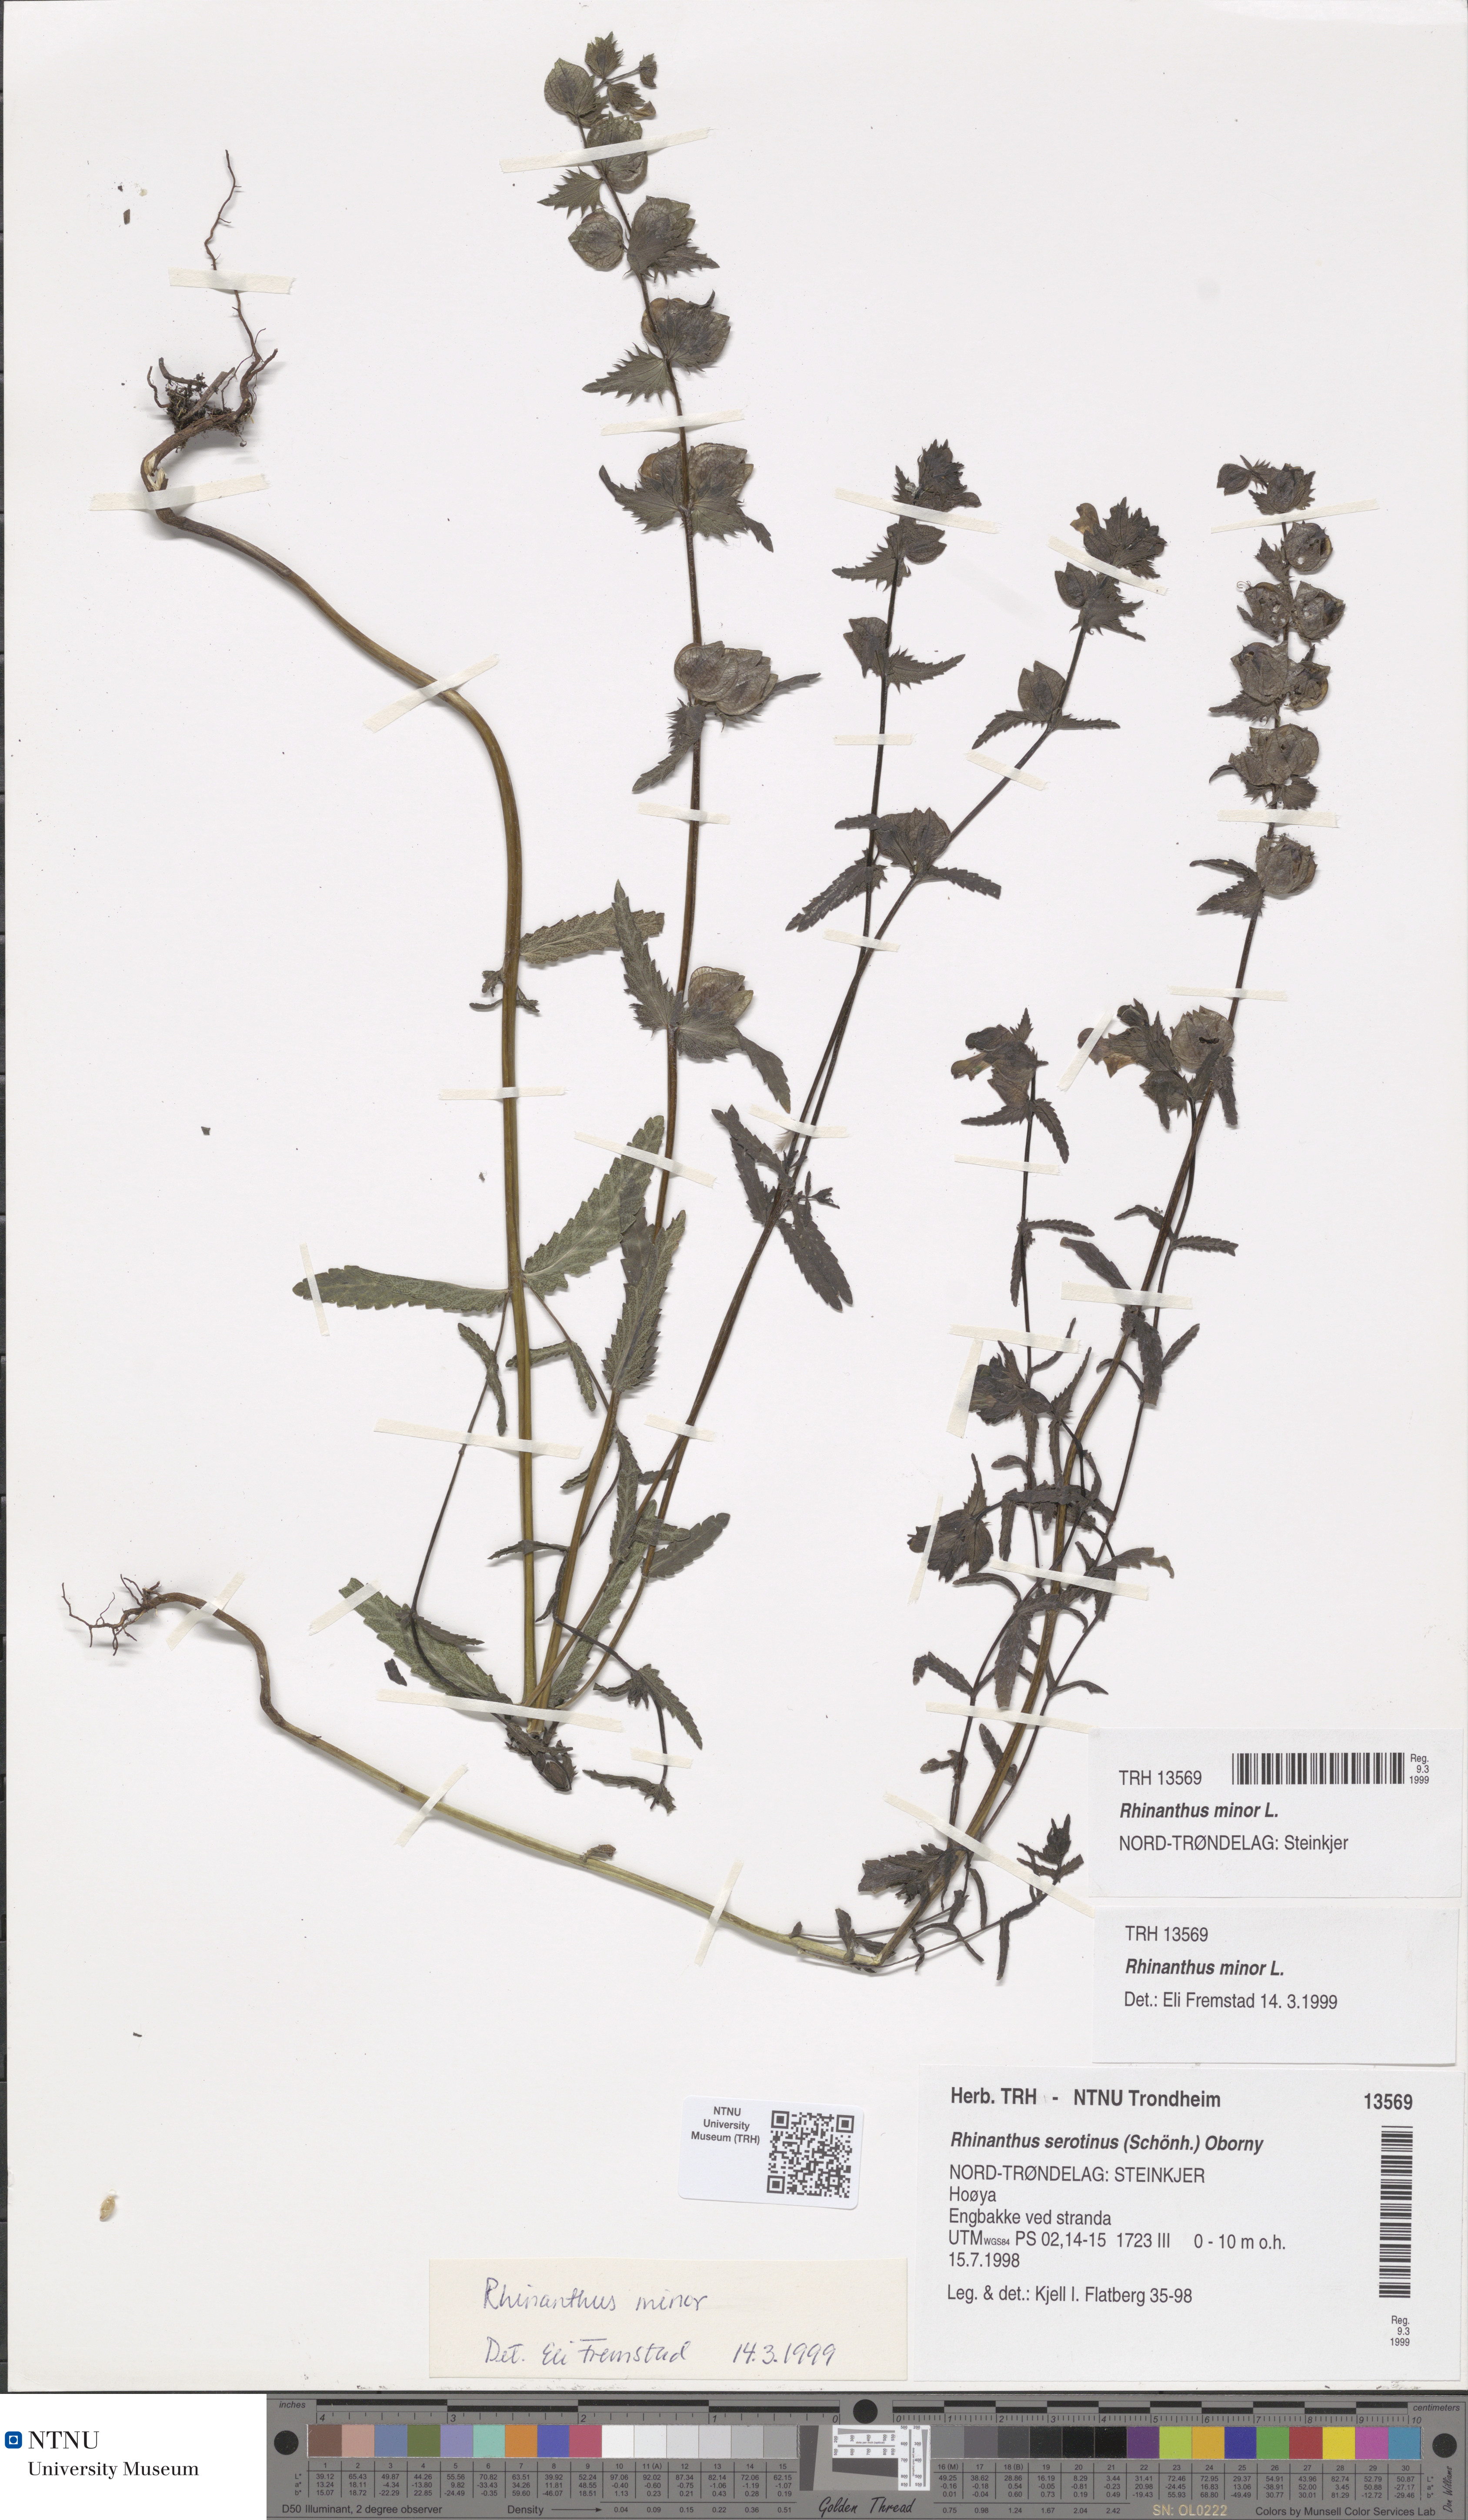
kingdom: Plantae
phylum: Tracheophyta
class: Magnoliopsida
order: Lamiales
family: Orobanchaceae
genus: Rhinanthus
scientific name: Rhinanthus minor
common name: Yellow-rattle
